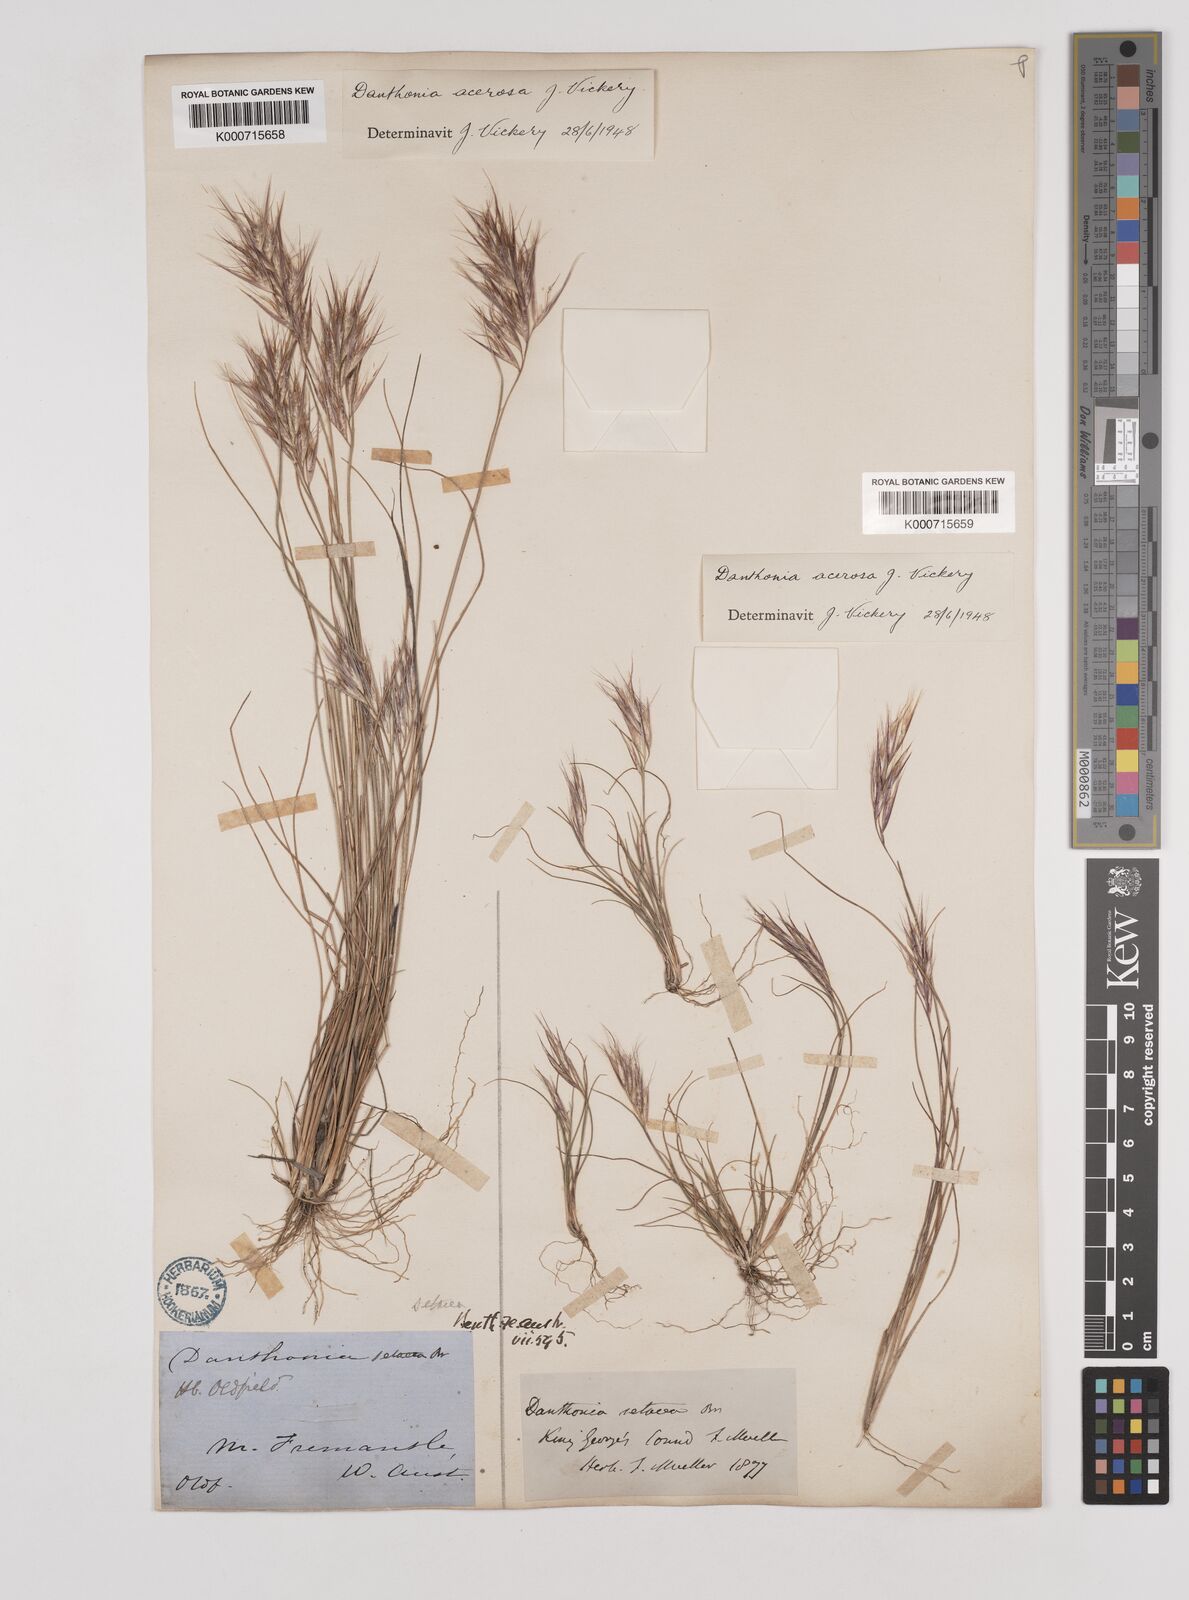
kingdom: Plantae
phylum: Tracheophyta
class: Liliopsida
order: Poales
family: Poaceae
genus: Rytidosperma
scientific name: Rytidosperma acerosum
